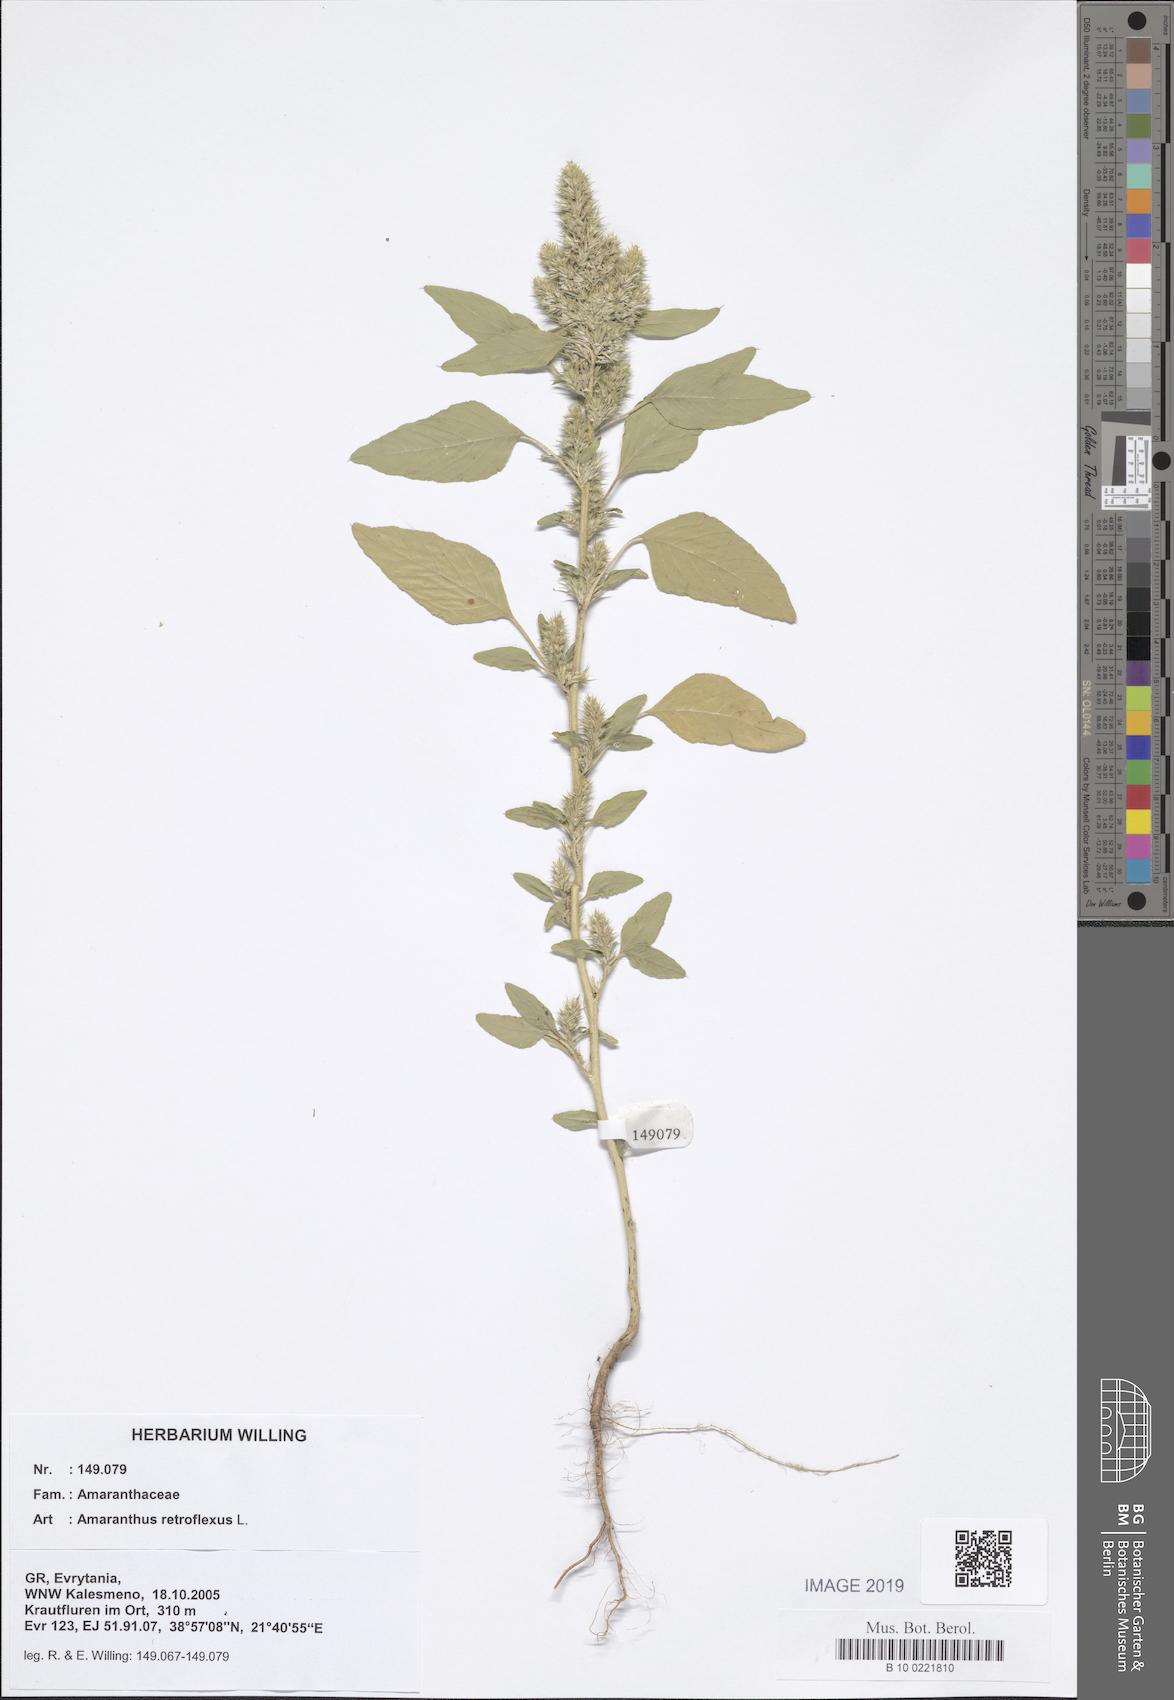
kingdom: Plantae
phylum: Tracheophyta
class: Magnoliopsida
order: Caryophyllales
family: Amaranthaceae
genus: Amaranthus
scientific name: Amaranthus retroflexus
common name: Redroot amaranth
